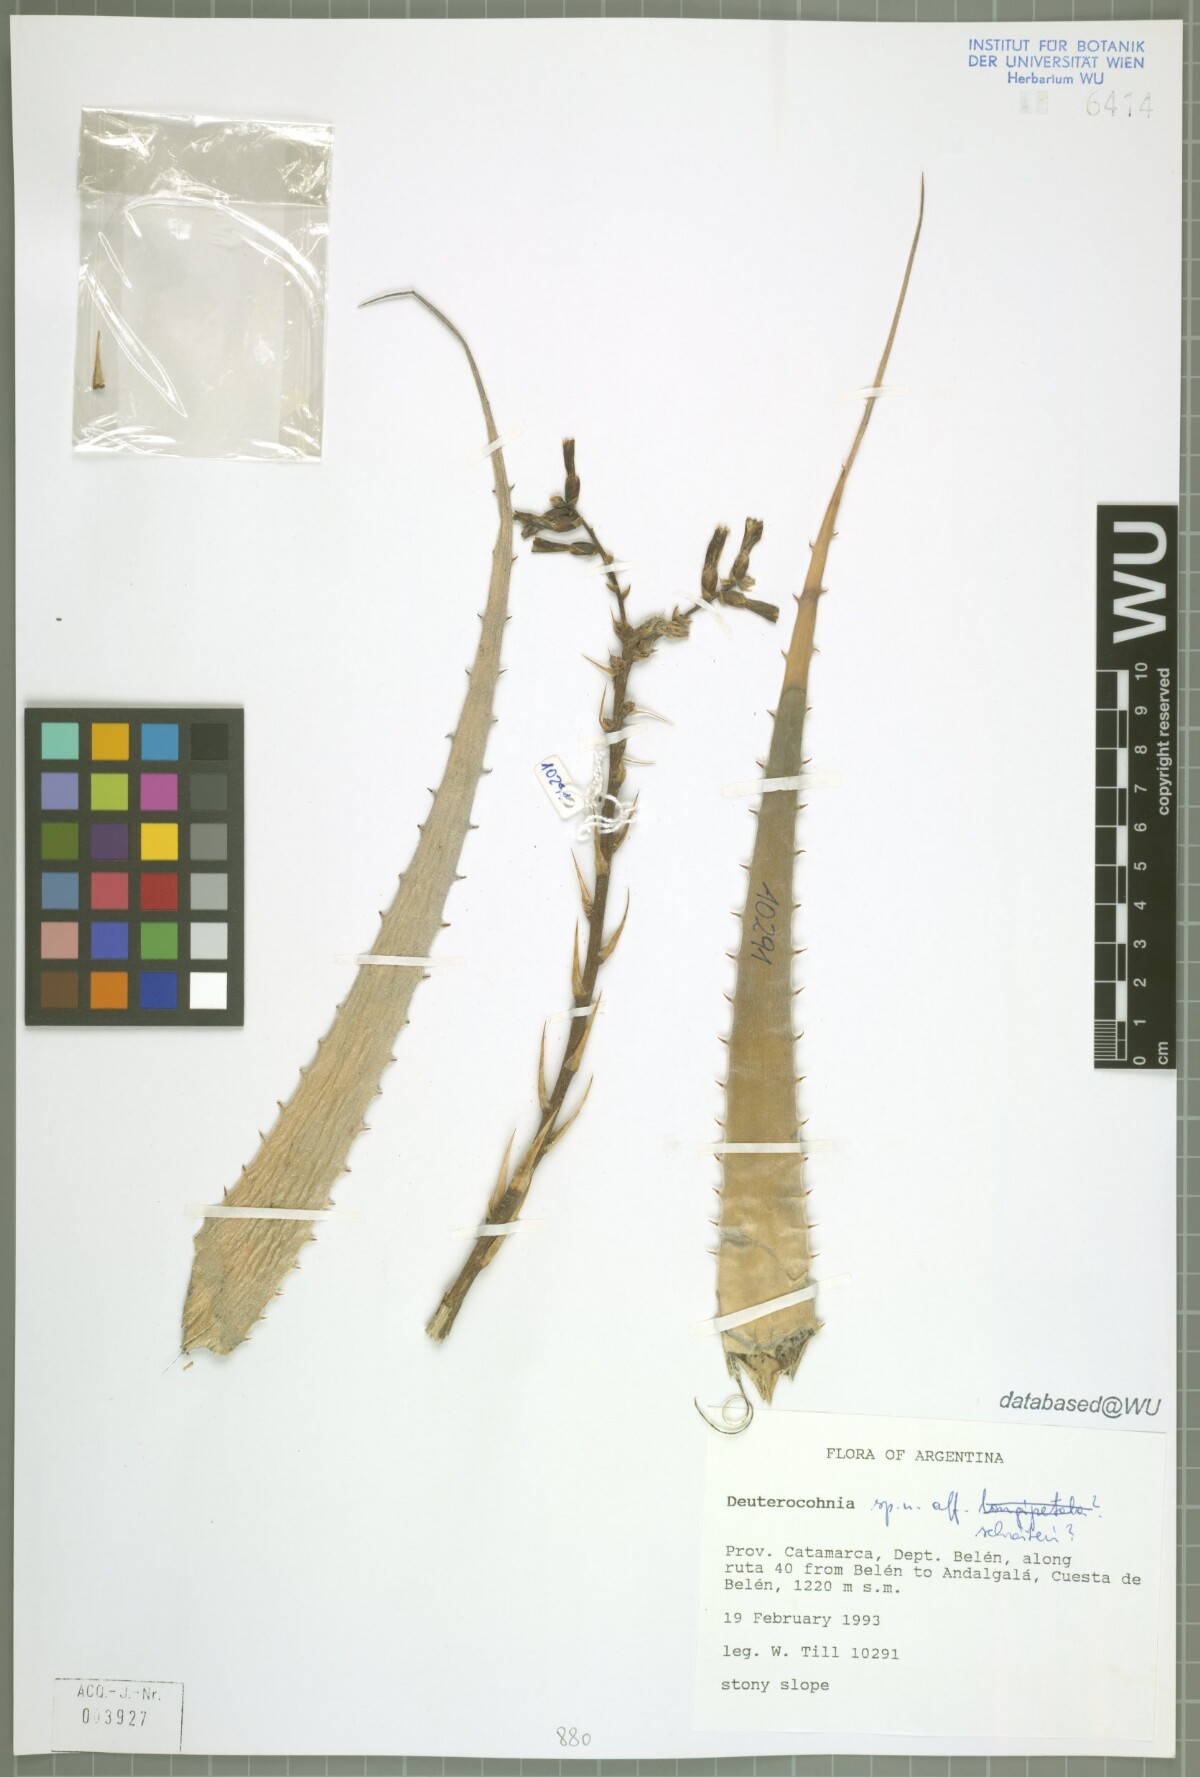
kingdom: Plantae
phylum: Tracheophyta
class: Liliopsida
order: Poales
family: Bromeliaceae
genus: Deuterocohnia
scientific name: Deuterocohnia
